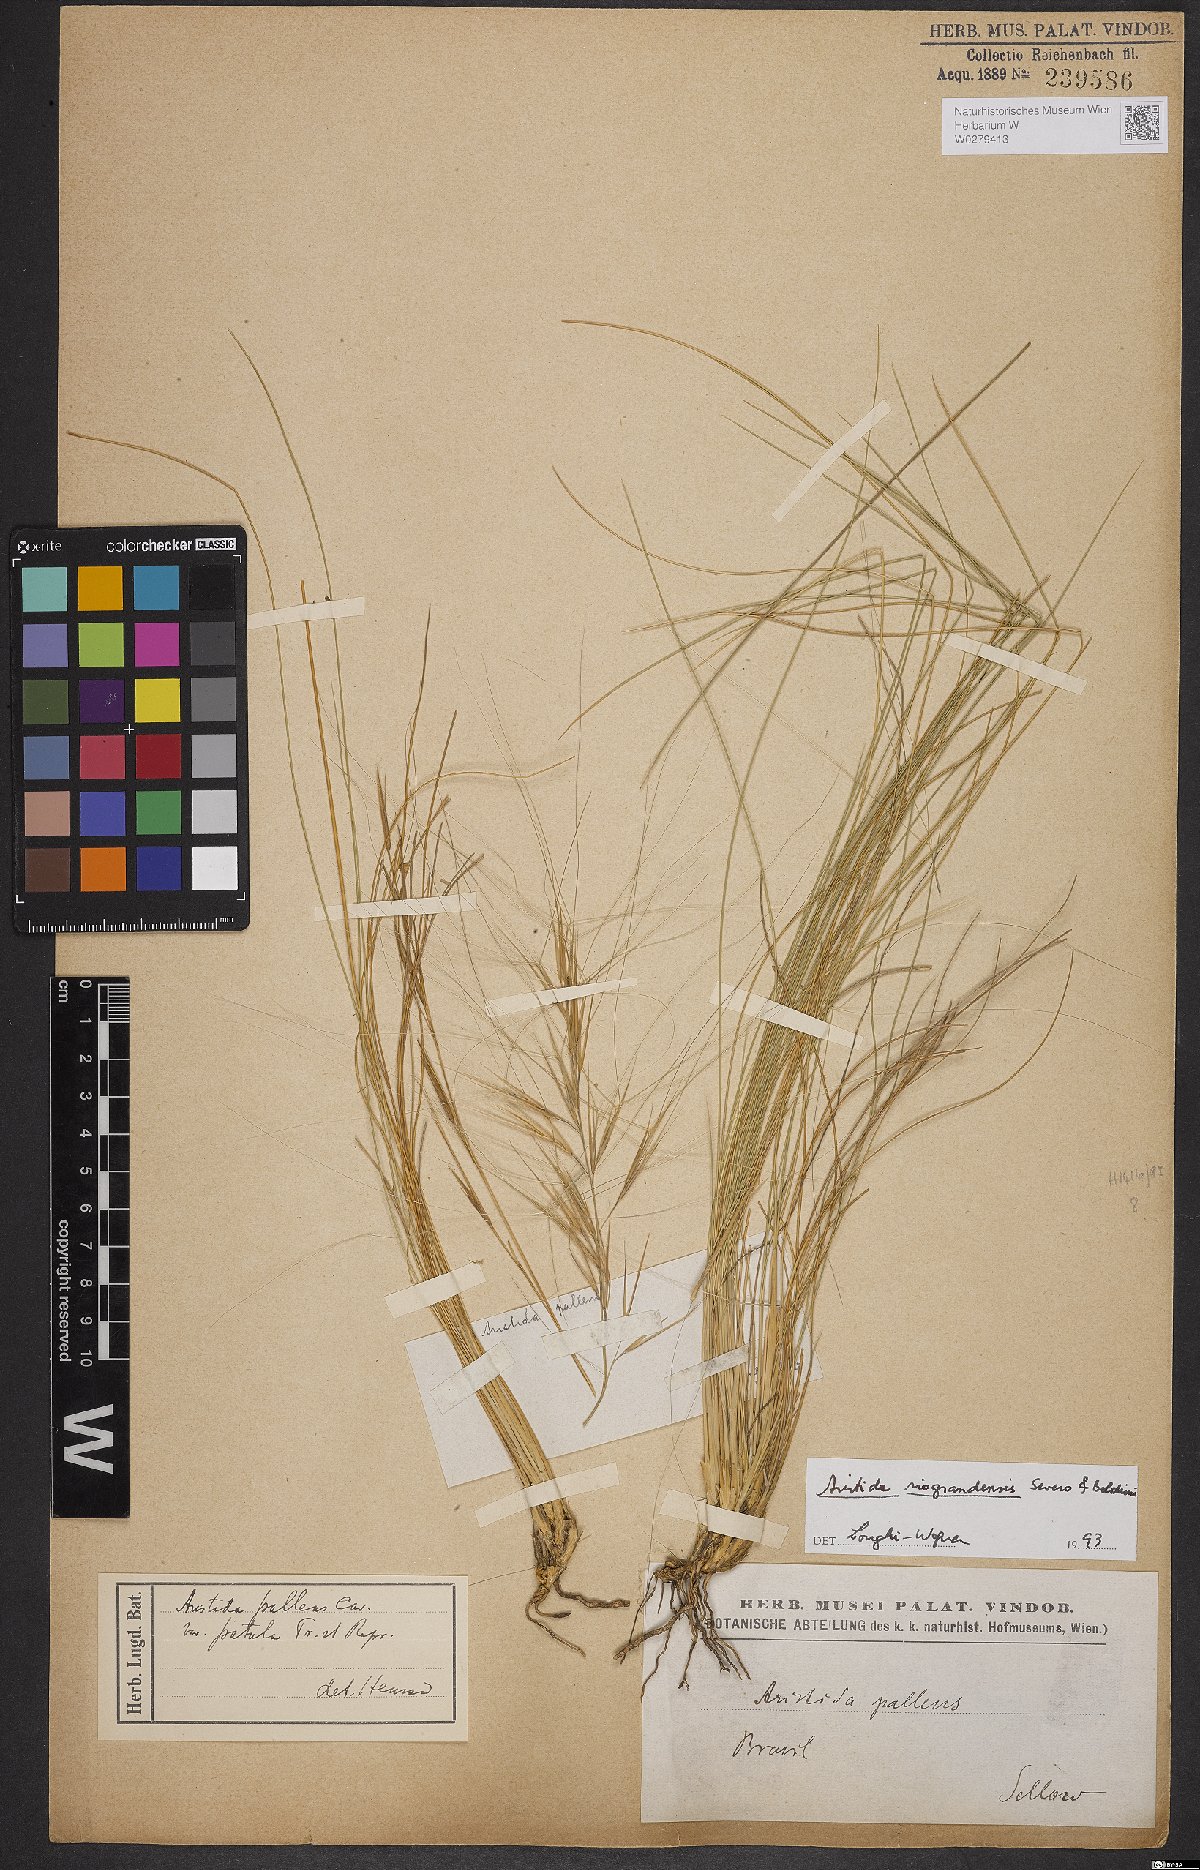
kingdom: Plantae
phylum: Tracheophyta
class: Liliopsida
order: Poales
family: Poaceae
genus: Aristida
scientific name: Aristida riograndensis
